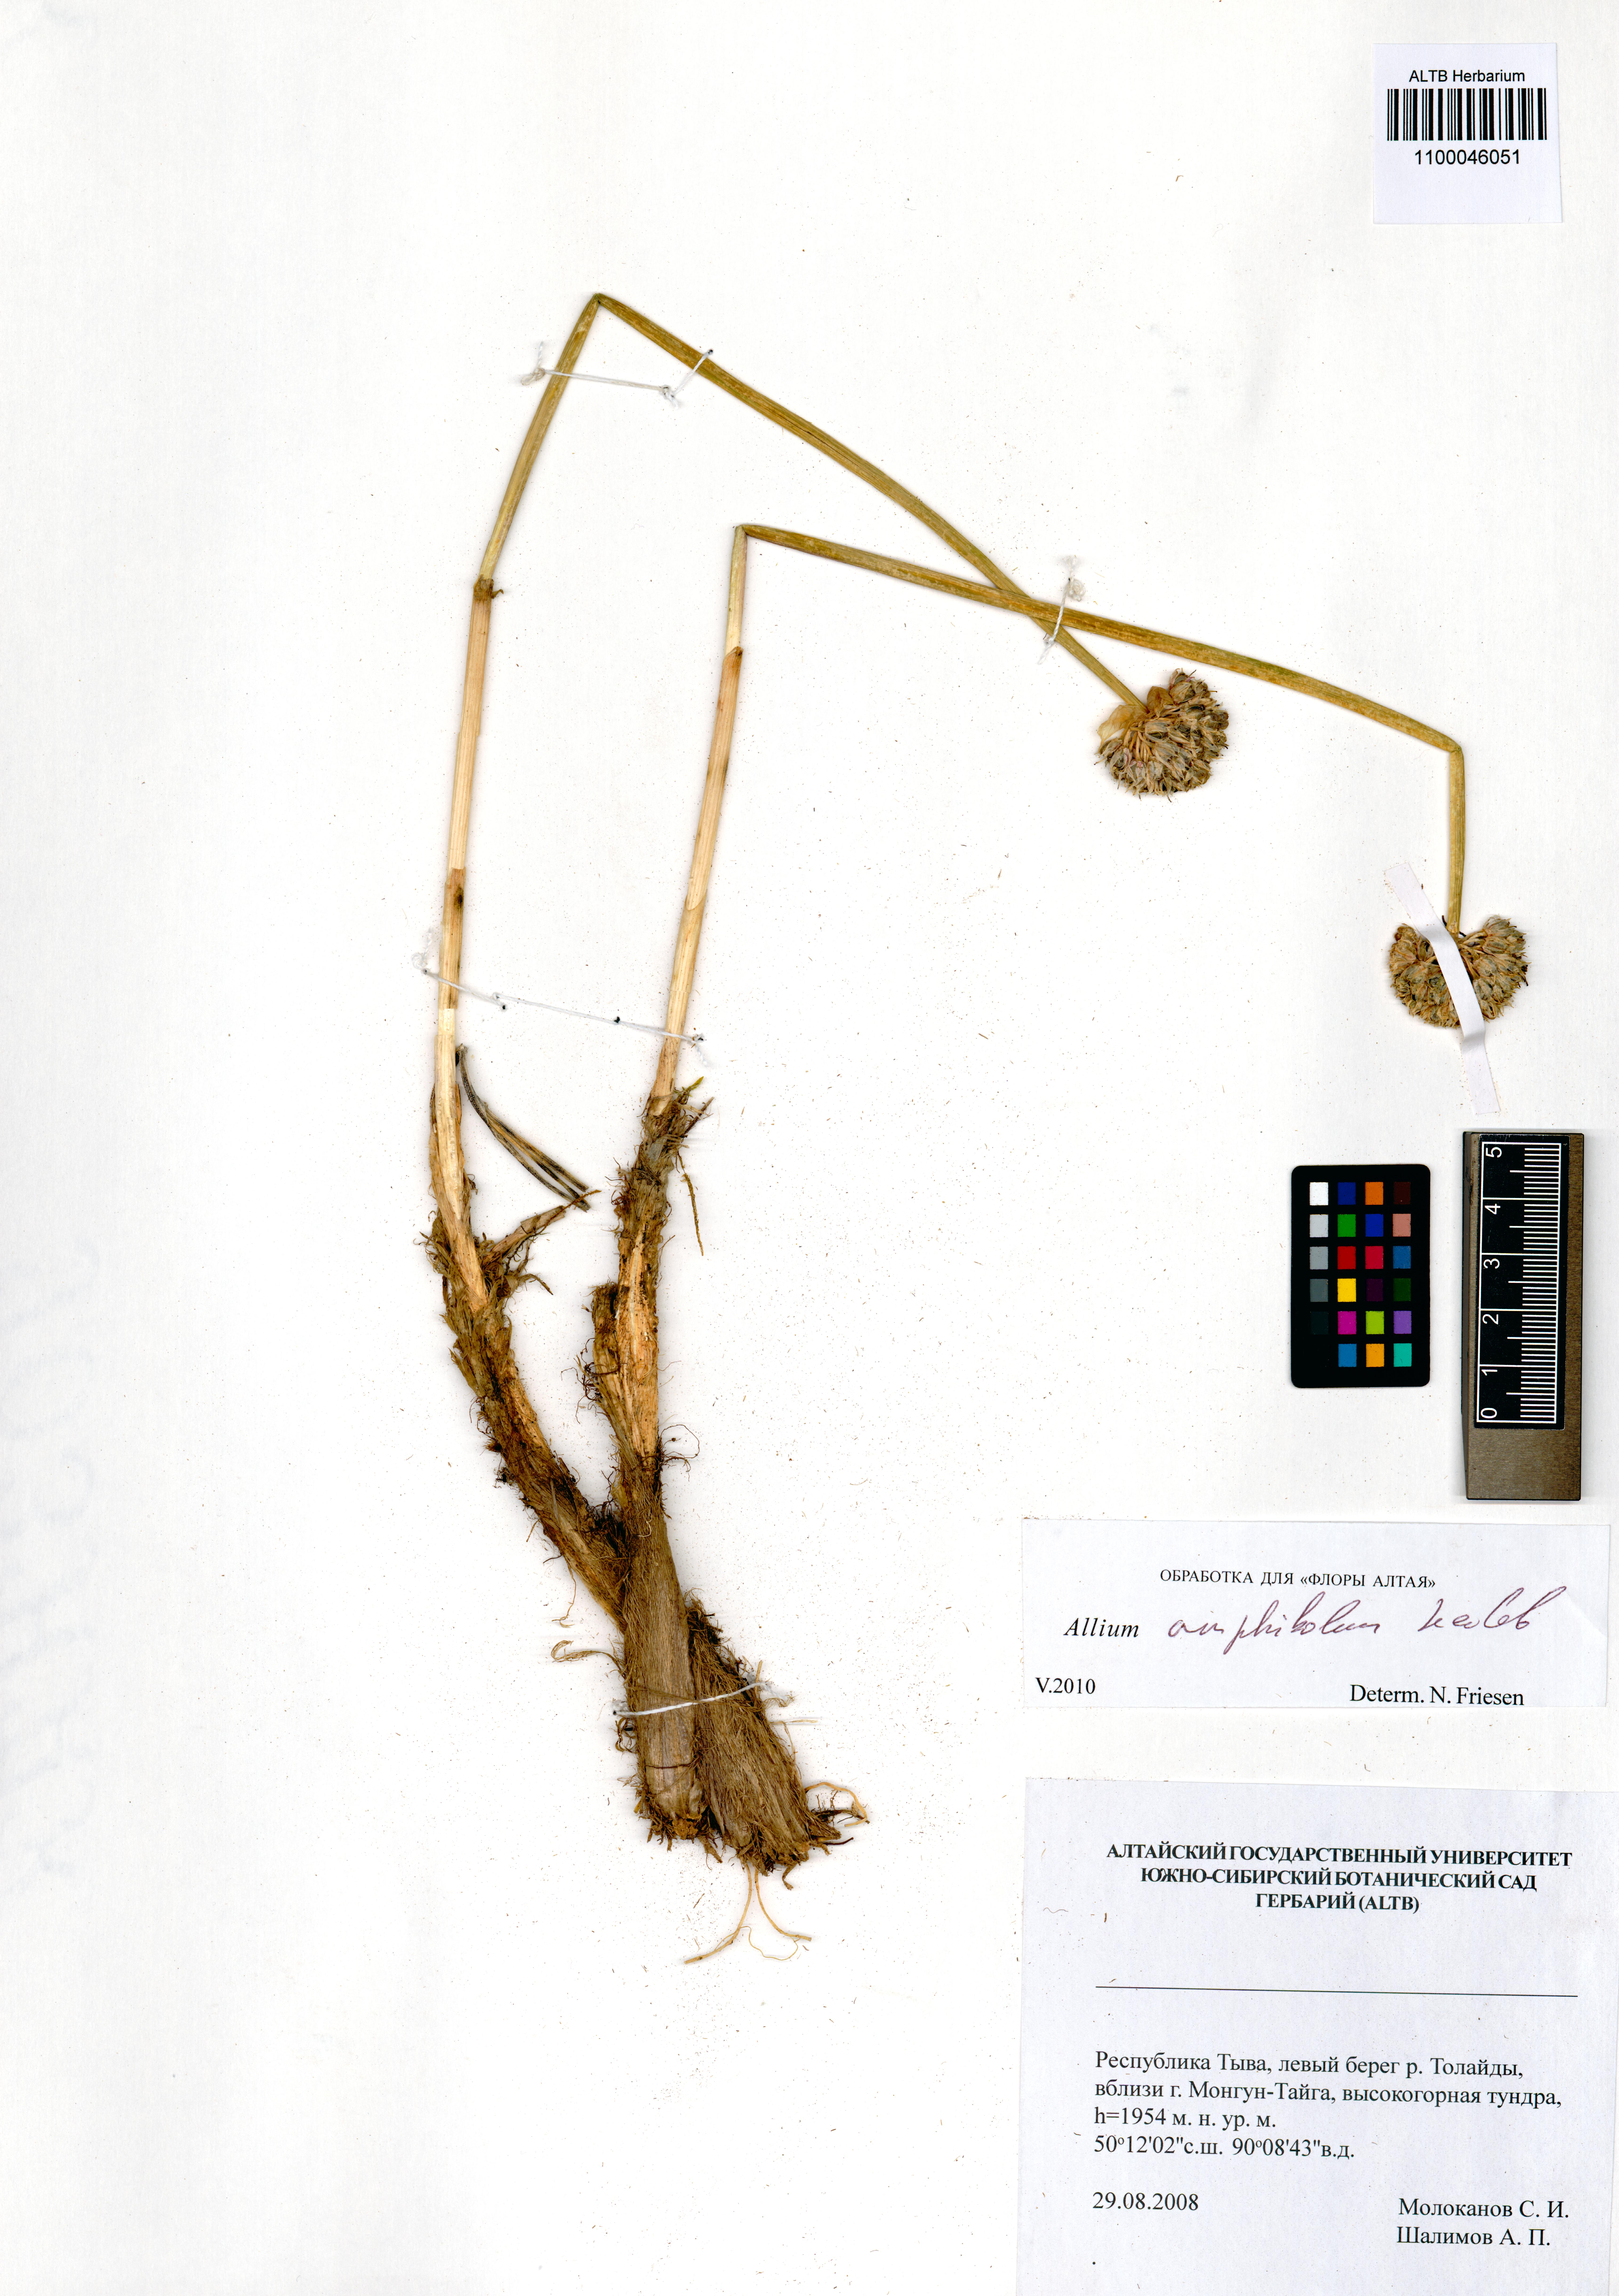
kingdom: Plantae
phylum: Tracheophyta
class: Liliopsida
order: Asparagales
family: Amaryllidaceae
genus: Allium
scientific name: Allium amphibolum
